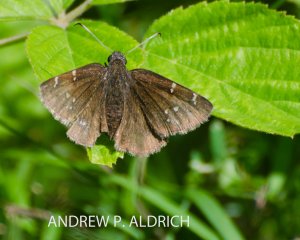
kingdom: Animalia
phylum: Arthropoda
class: Insecta
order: Lepidoptera
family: Hesperiidae
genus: Autochton
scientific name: Autochton
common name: Northern Cloudywing
